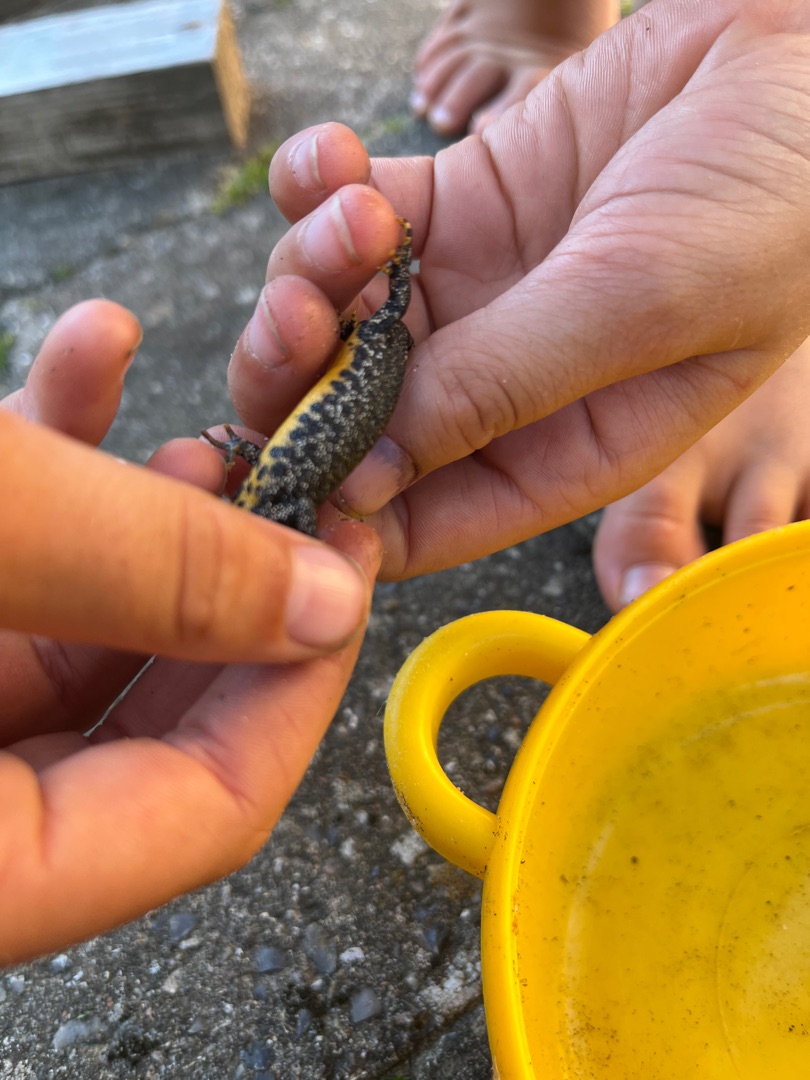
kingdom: Animalia
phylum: Chordata
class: Amphibia
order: Caudata
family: Salamandridae
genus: Triturus
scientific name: Triturus cristatus
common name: Stor vandsalamander
